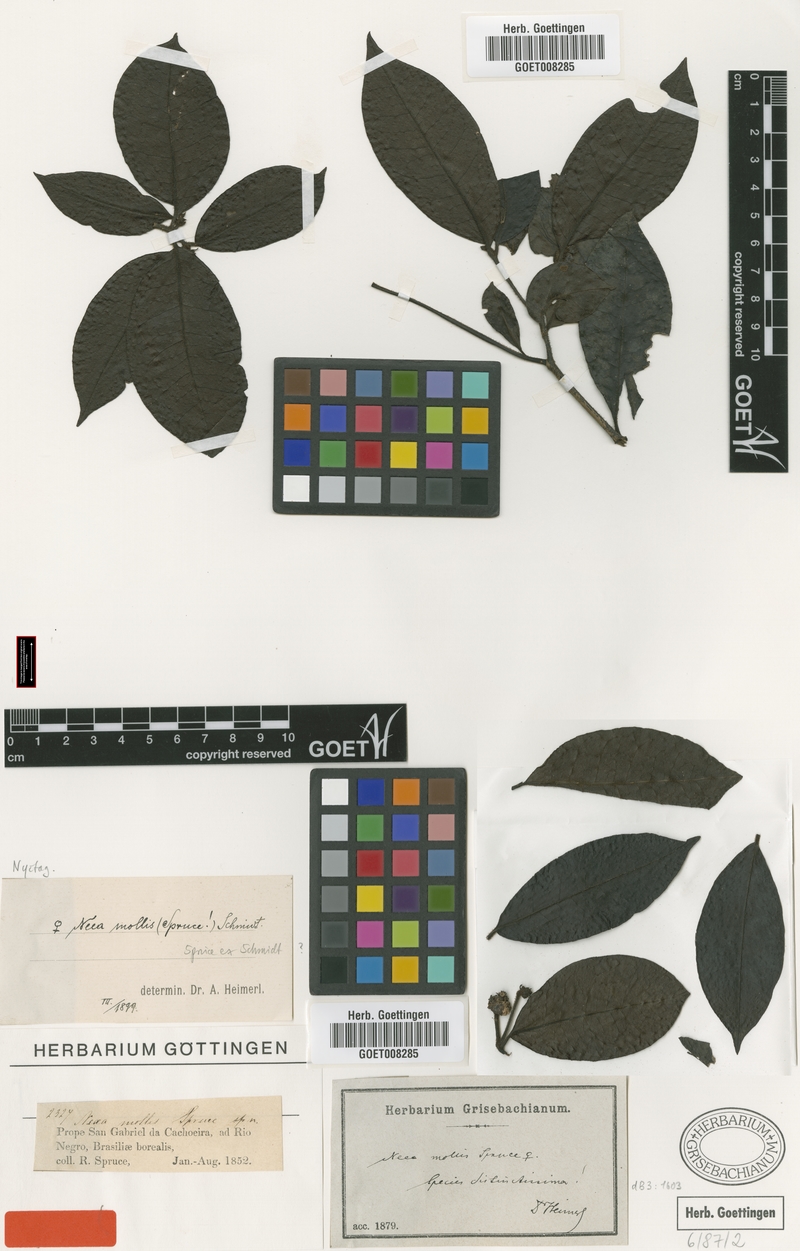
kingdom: Plantae
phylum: Tracheophyta
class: Magnoliopsida
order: Caryophyllales
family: Nyctaginaceae
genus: Neea
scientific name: Neea mollis
